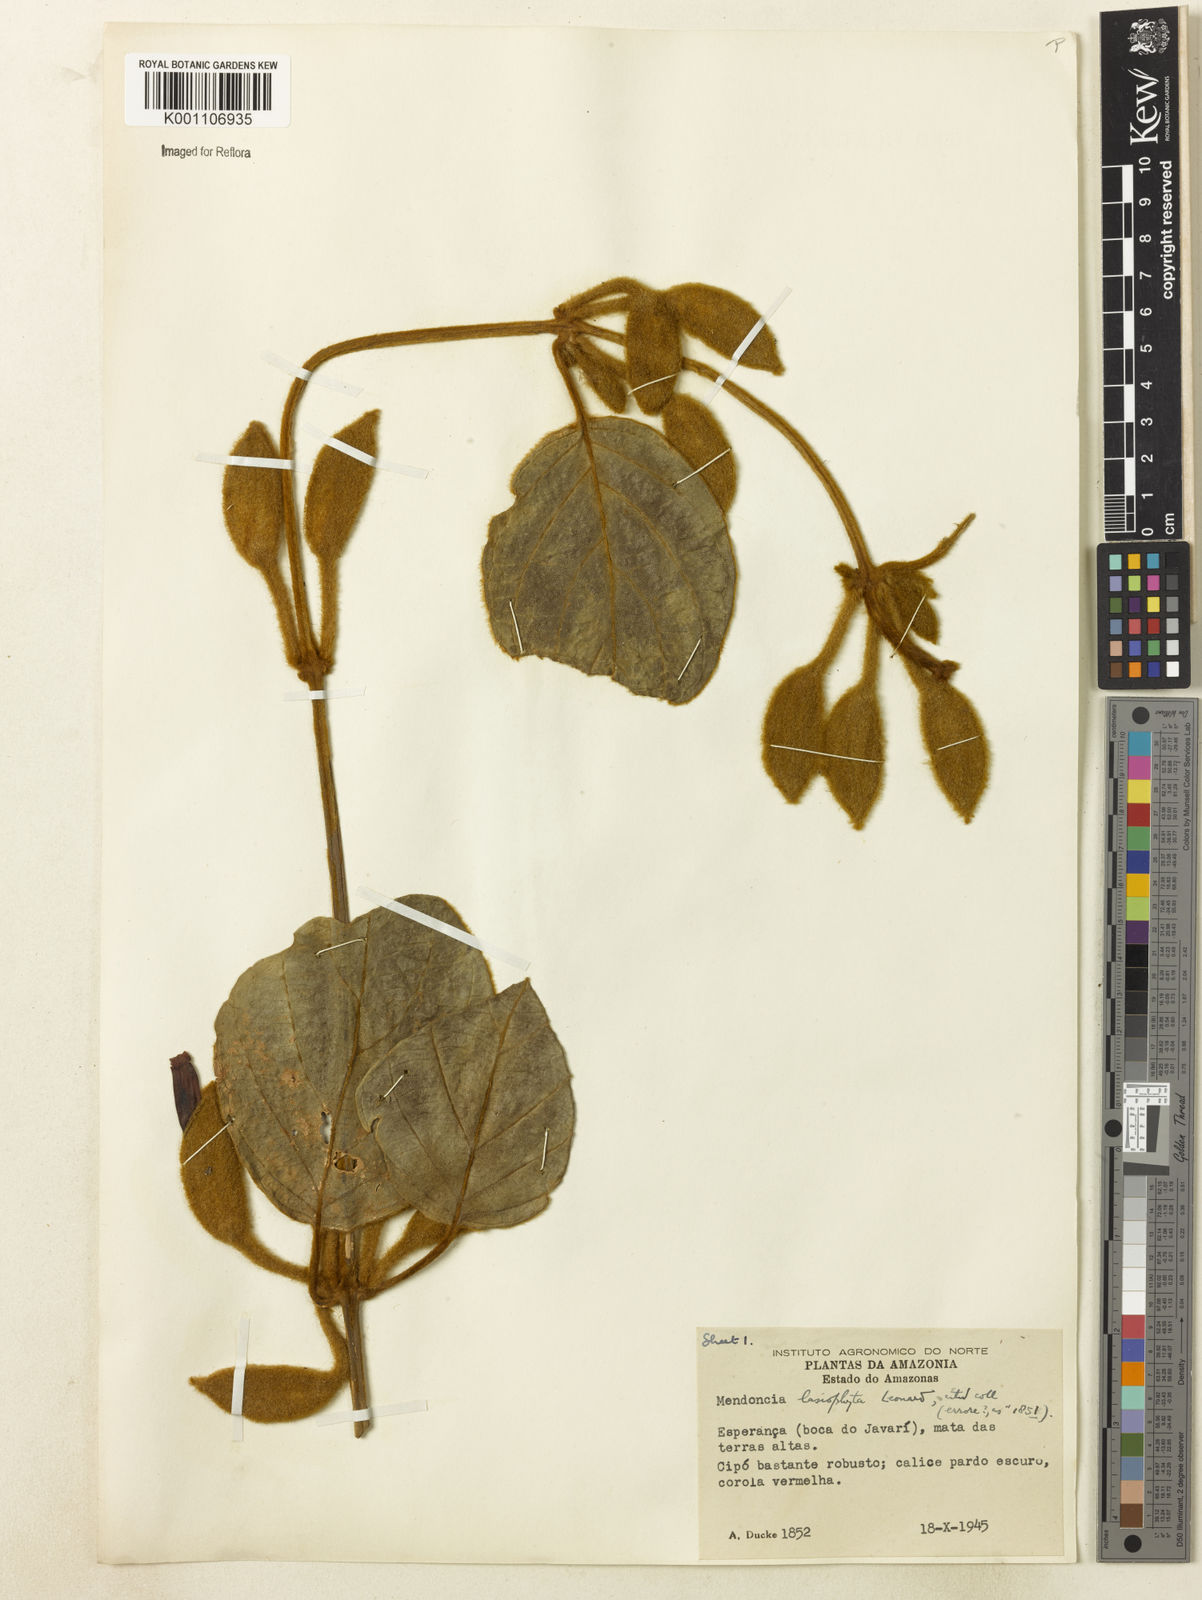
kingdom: Plantae
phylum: Tracheophyta
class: Magnoliopsida
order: Lamiales
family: Acanthaceae
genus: Mendoncia
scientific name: Mendoncia lasiophyta
